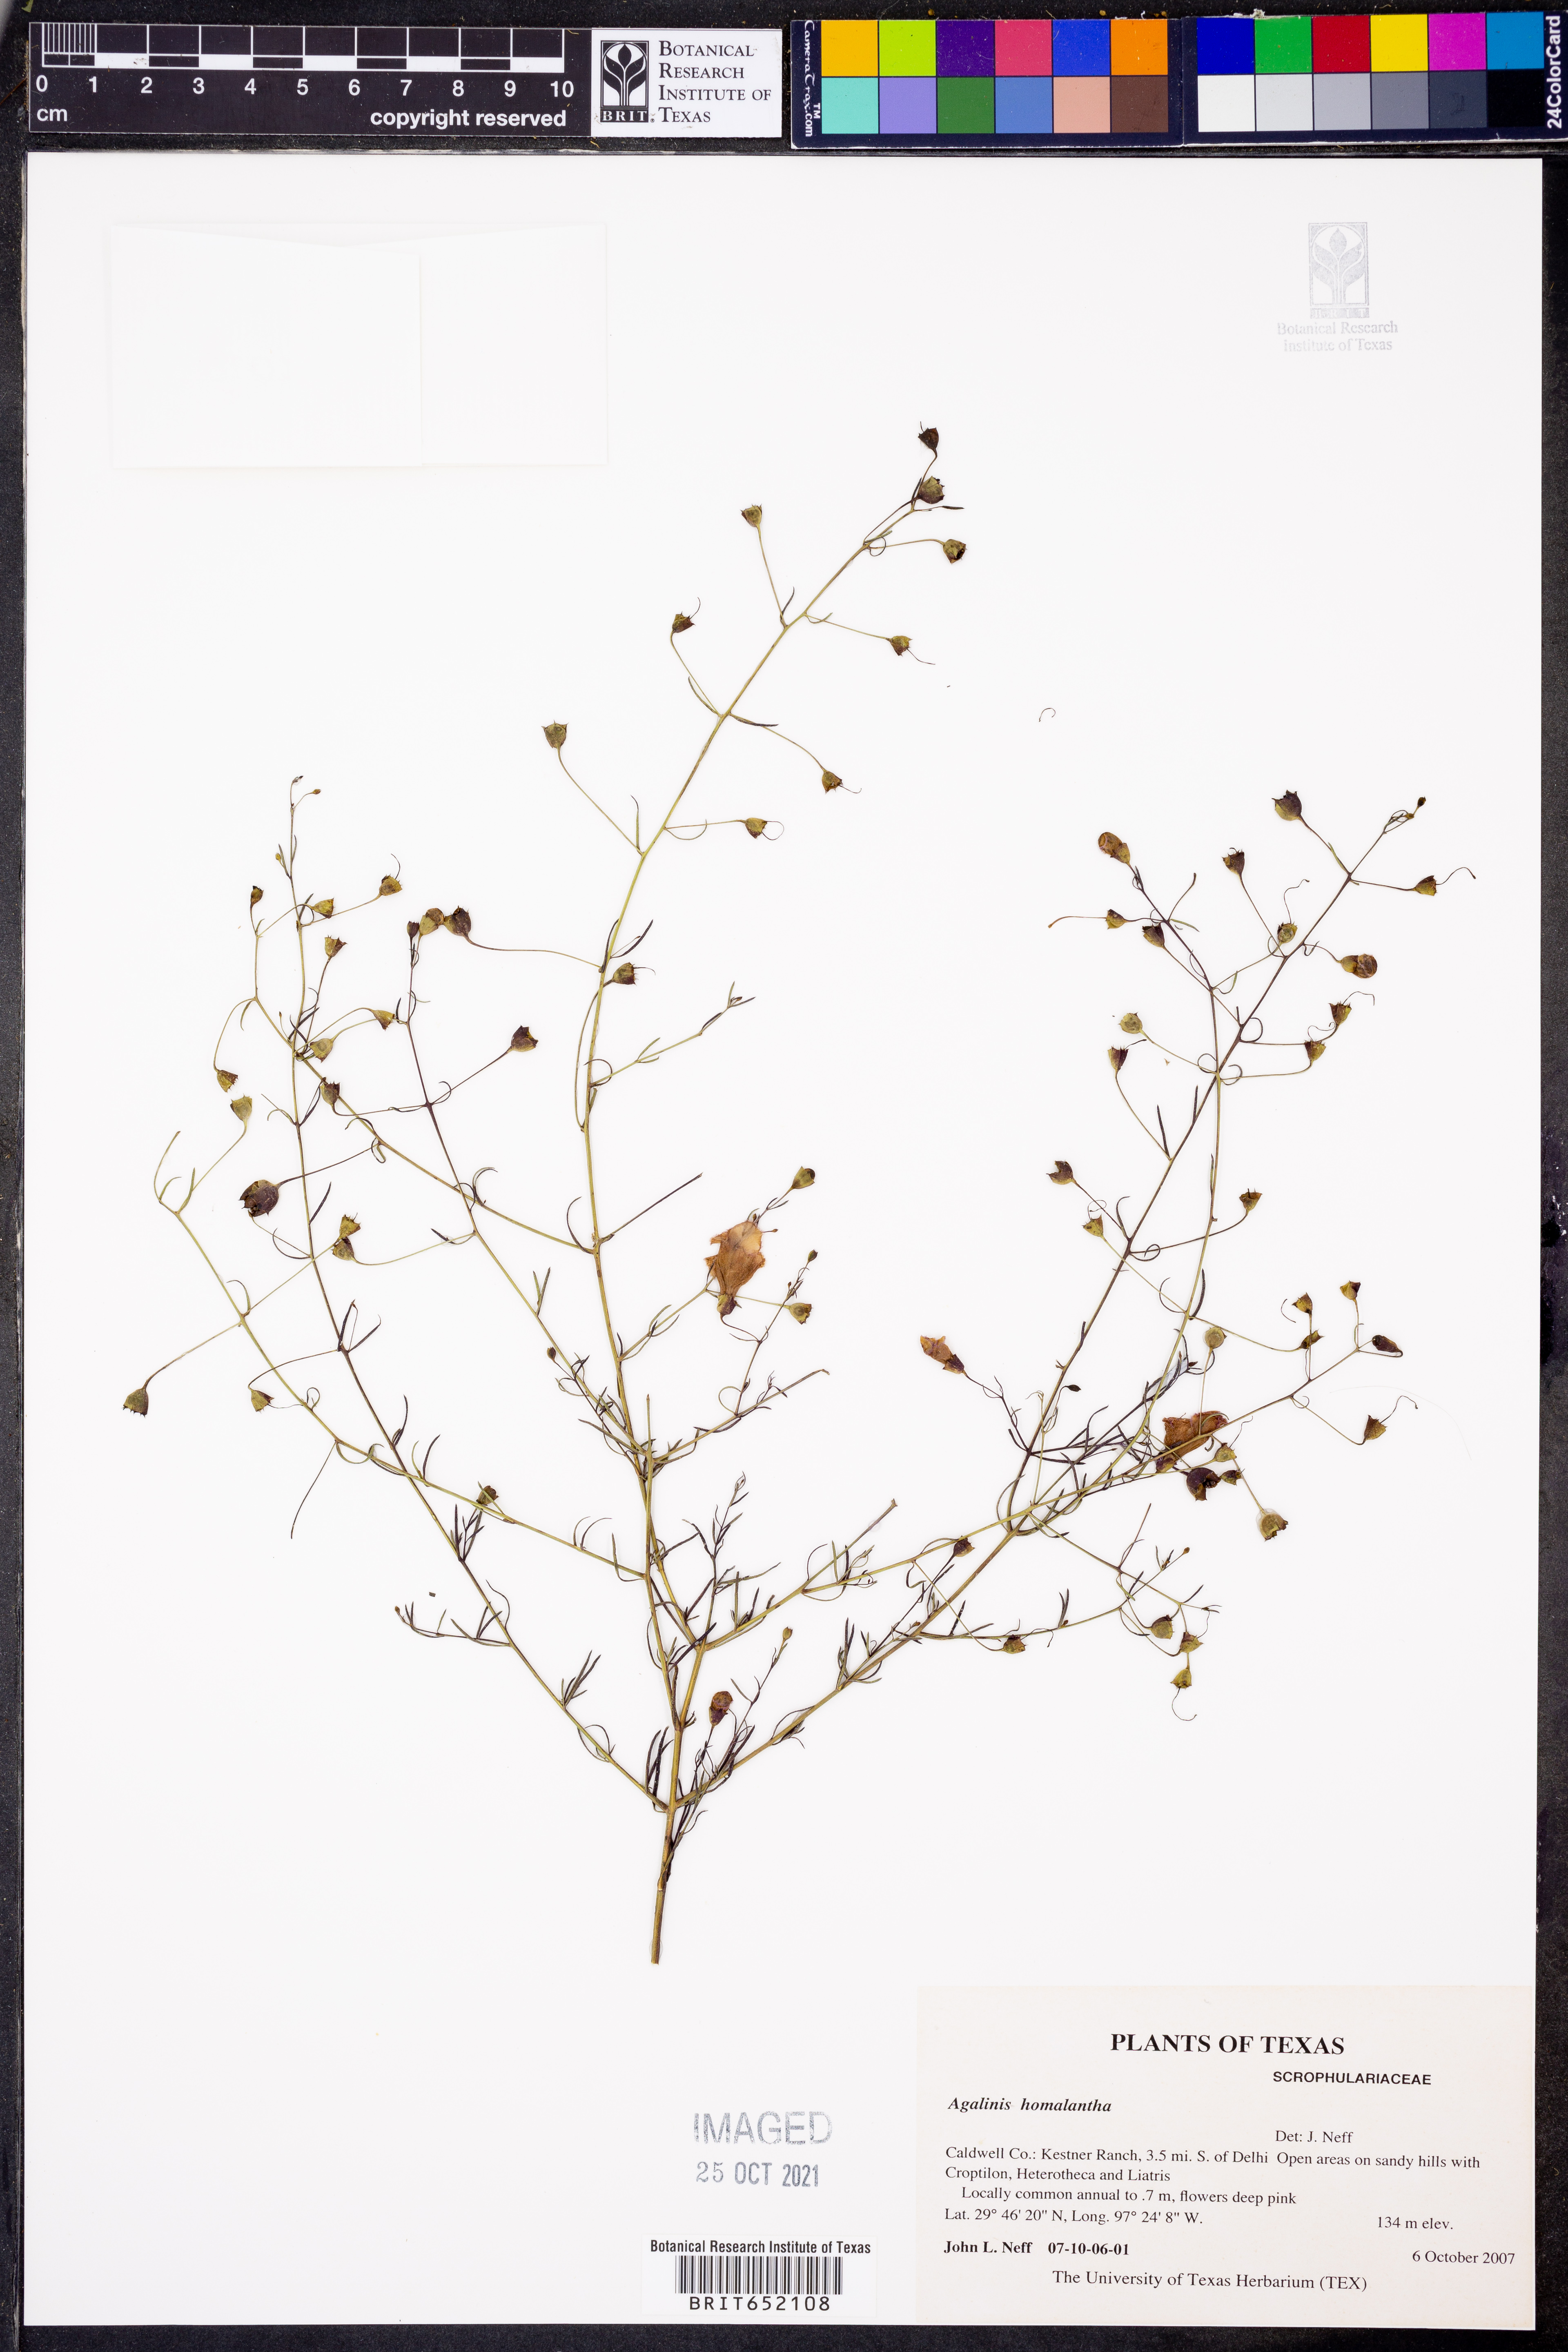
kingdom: Plantae
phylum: Tracheophyta
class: Magnoliopsida
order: Lamiales
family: Orobanchaceae
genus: Agalinis
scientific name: Agalinis homalantha
